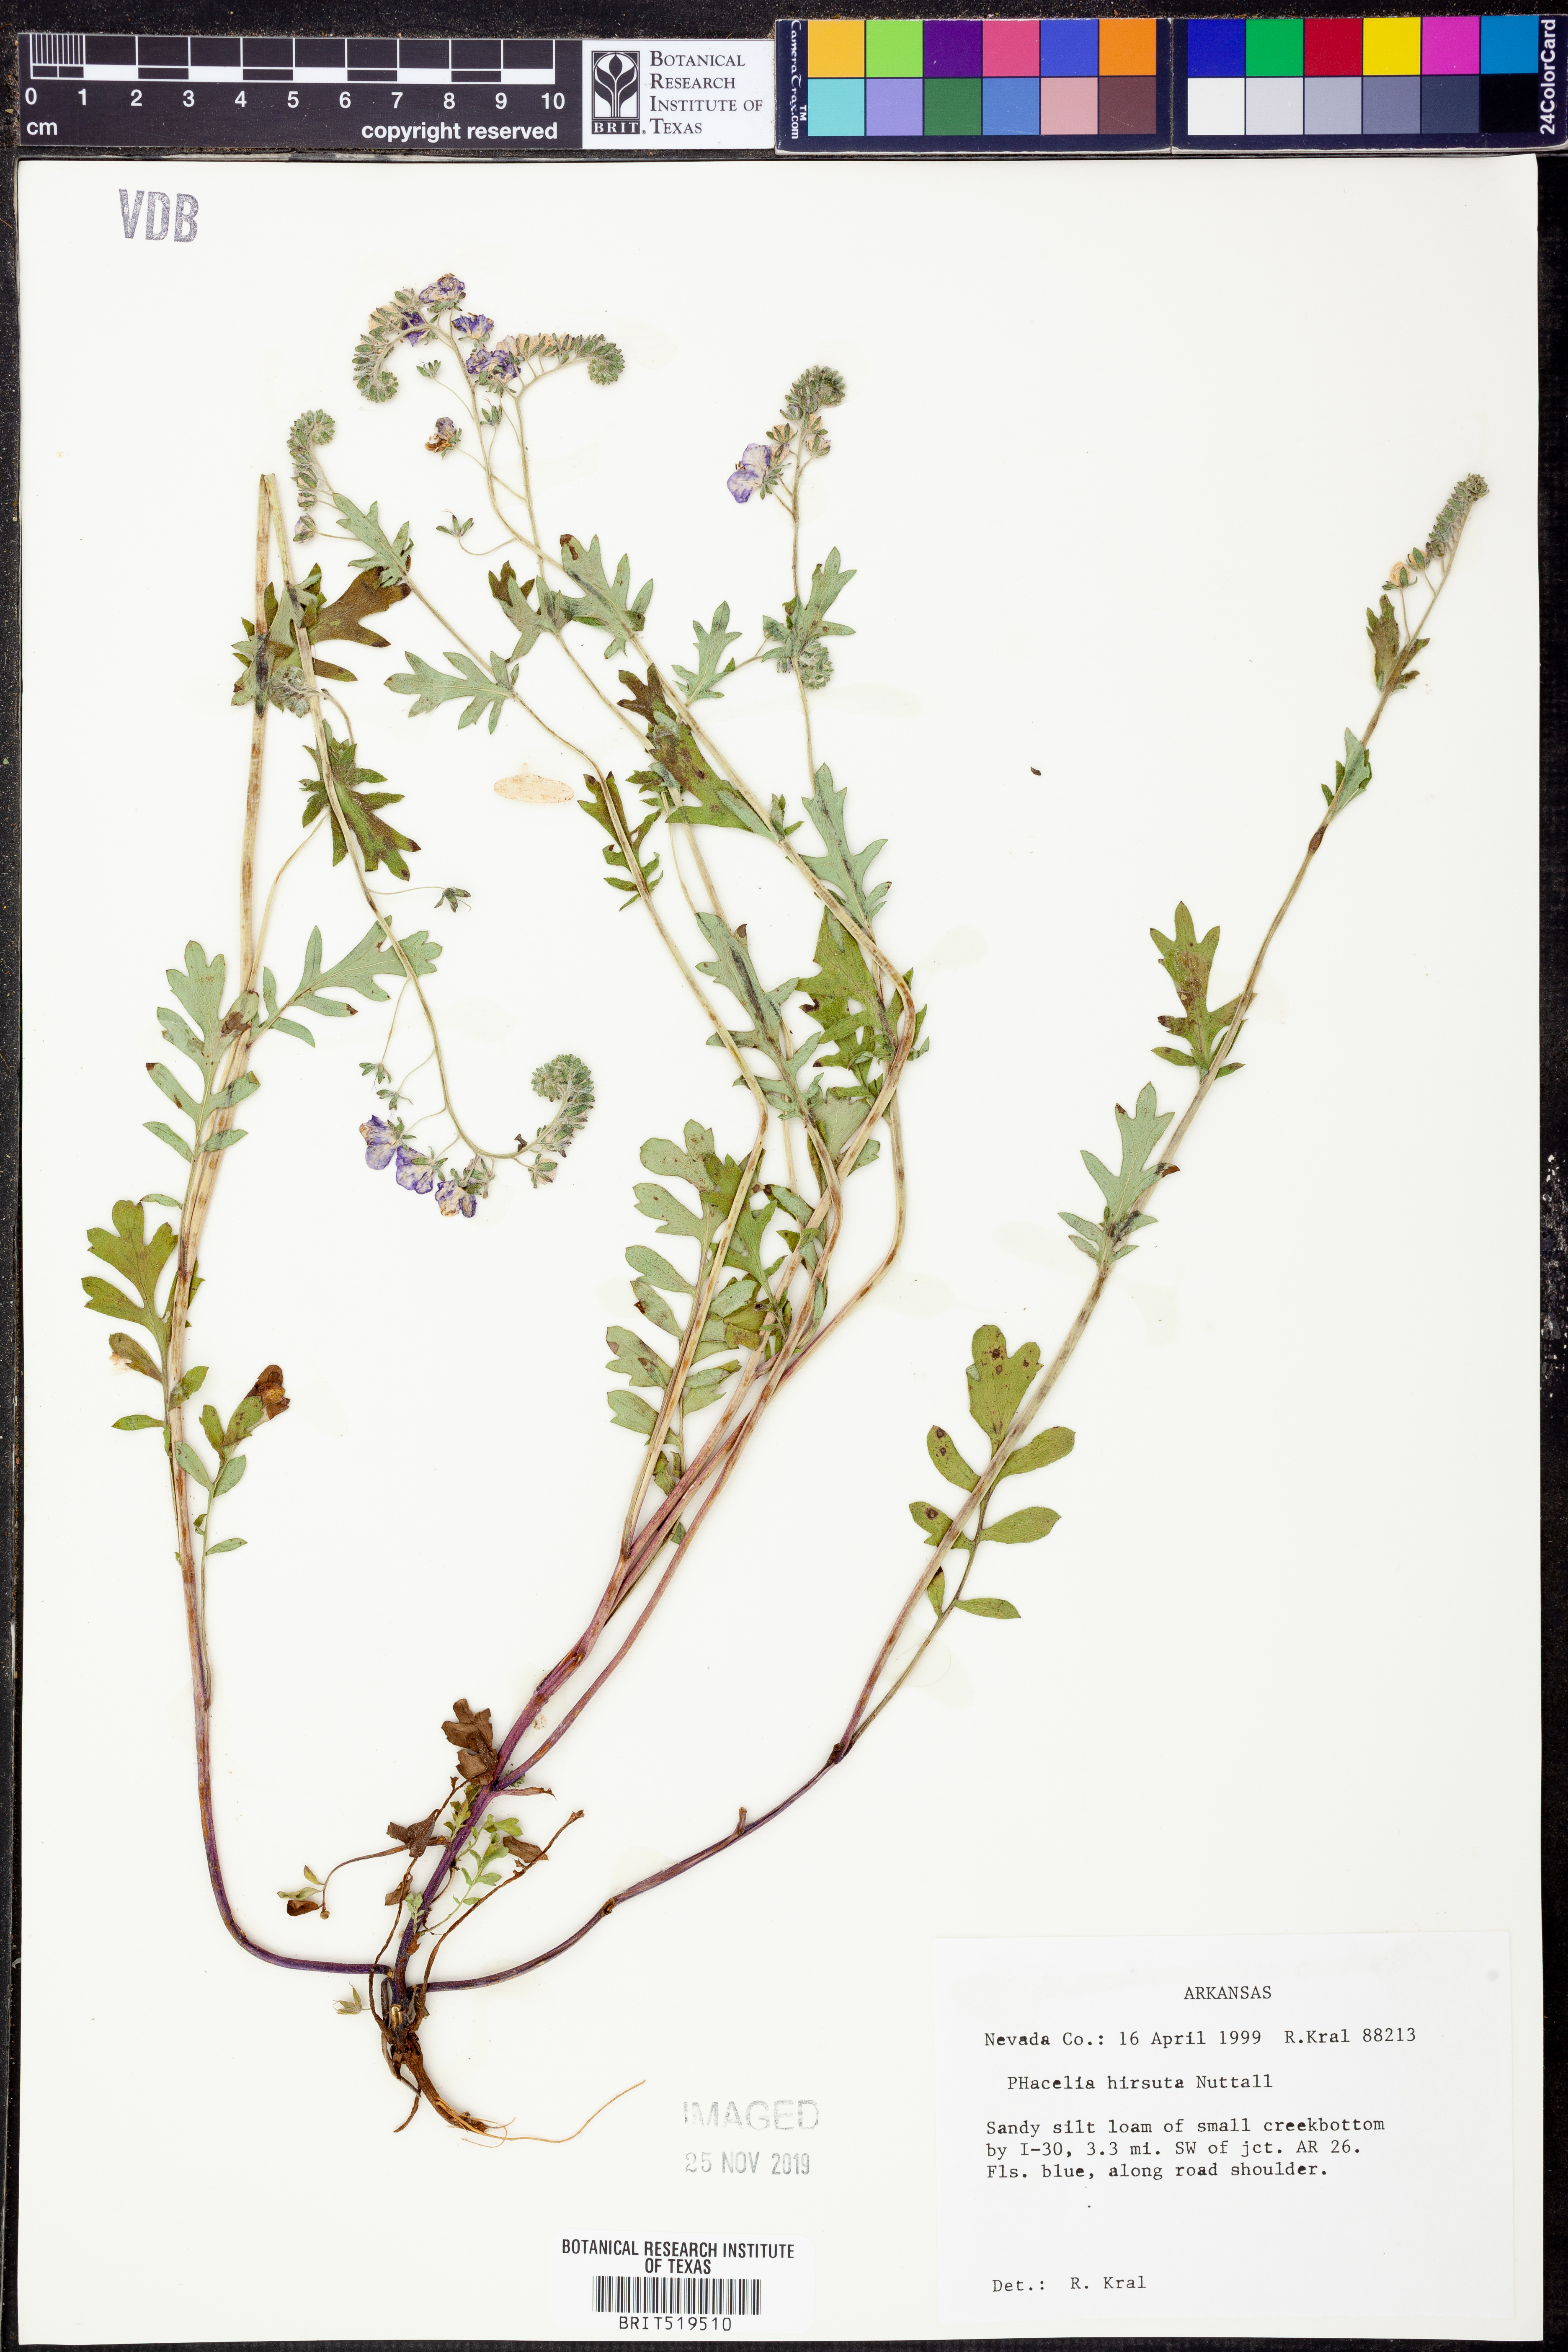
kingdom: Plantae
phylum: Tracheophyta
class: Magnoliopsida
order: Boraginales
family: Hydrophyllaceae
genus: Phacelia
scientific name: Phacelia hirsuta
